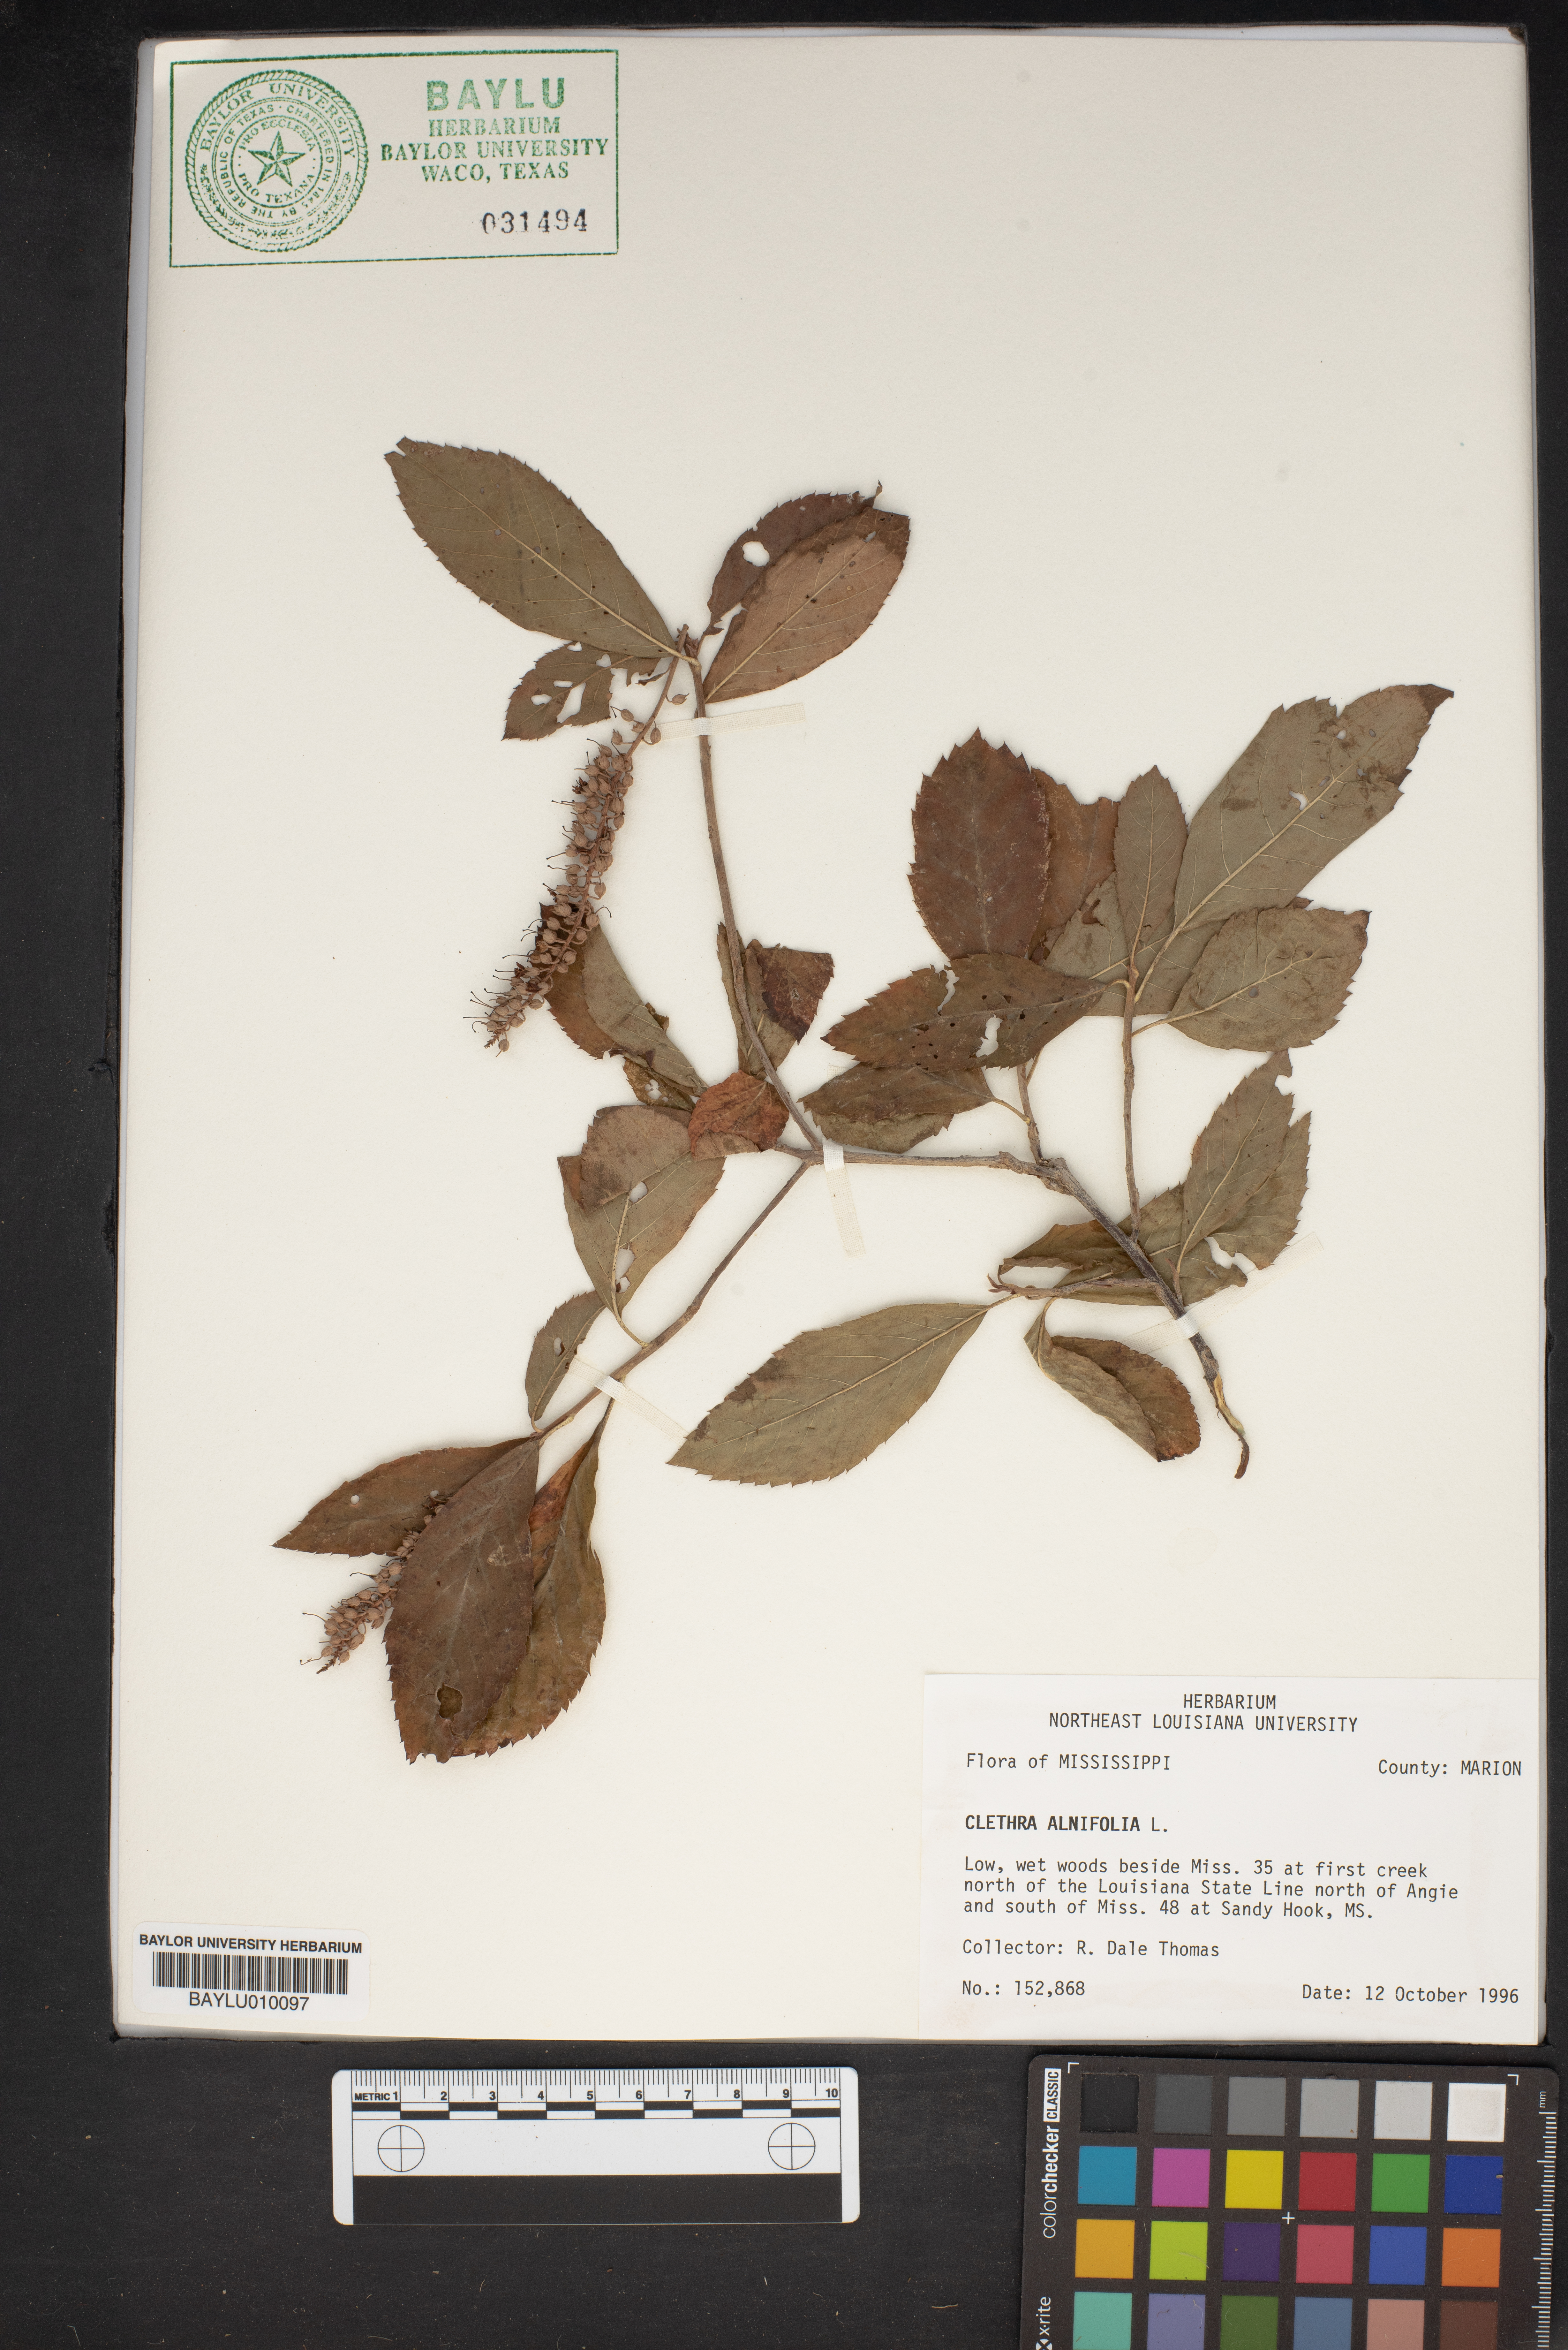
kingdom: Plantae
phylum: Tracheophyta
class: Magnoliopsida
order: Ericales
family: Clethraceae
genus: Clethra
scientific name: Clethra alnifolia
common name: Sweet pepperbush
